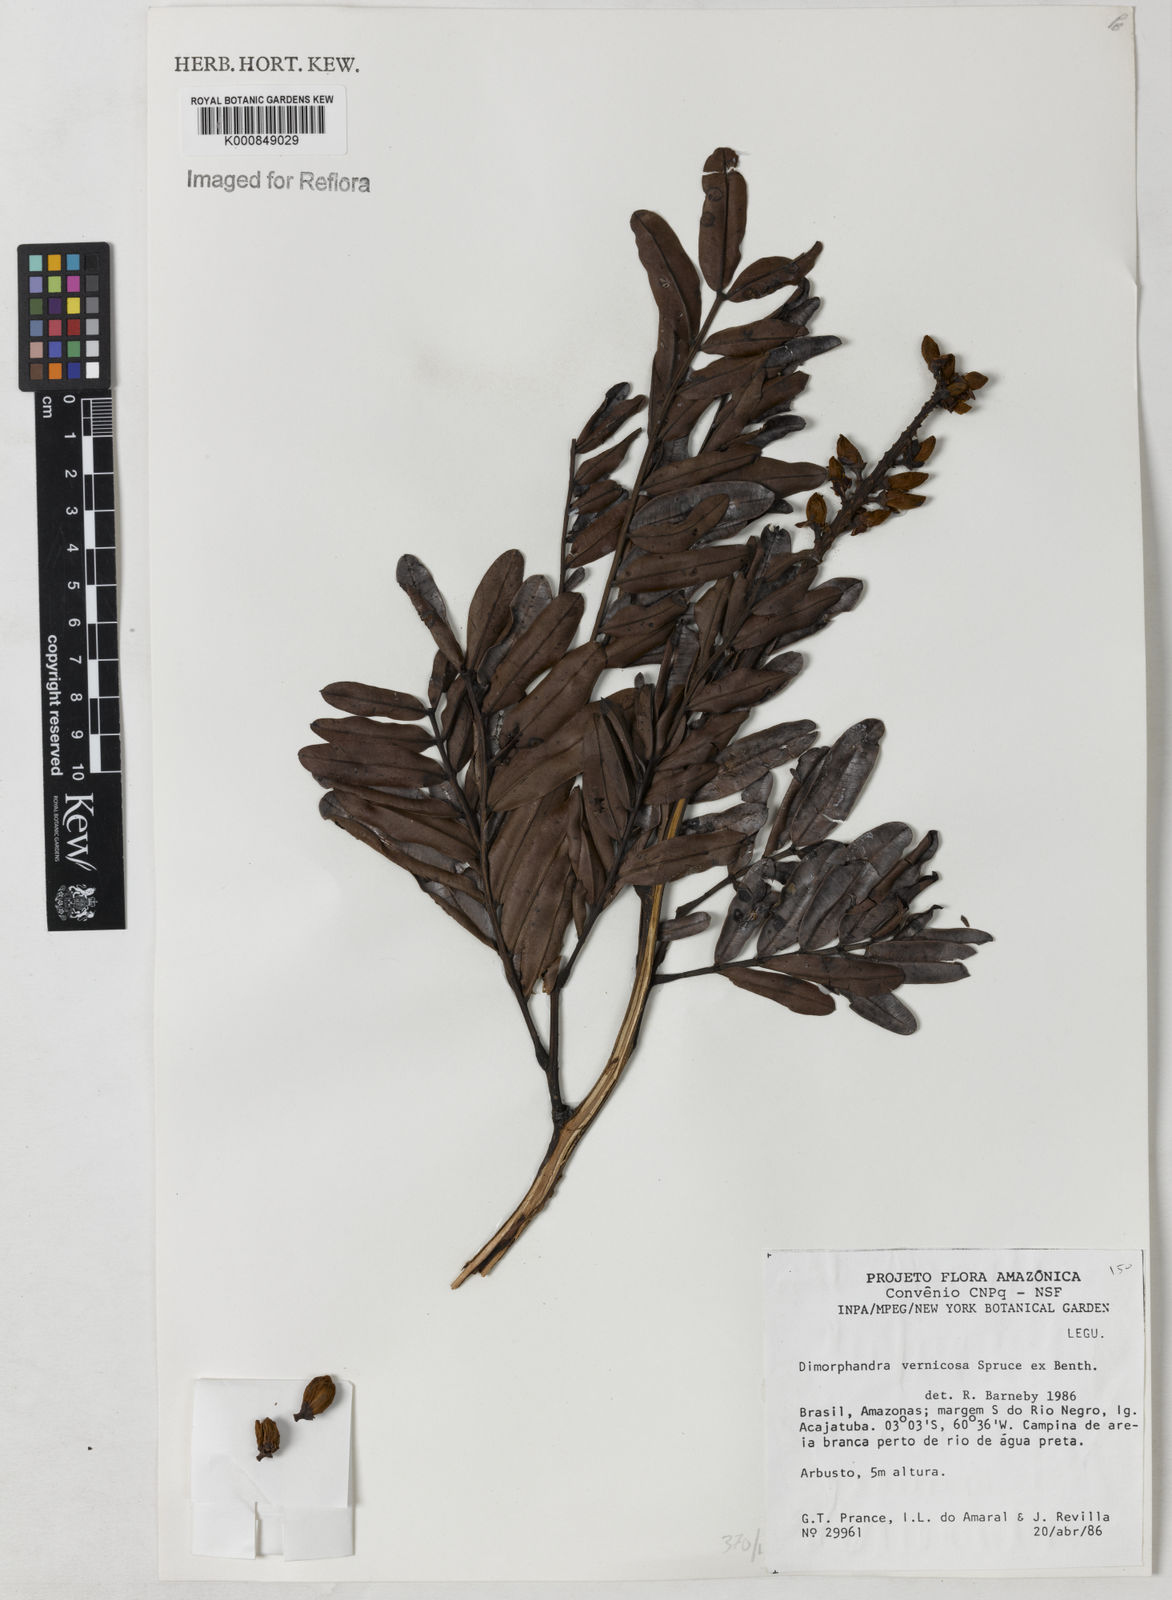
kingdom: Plantae
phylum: Tracheophyta
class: Magnoliopsida
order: Fabales
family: Fabaceae
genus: Dimorphandra
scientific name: Dimorphandra vernicosa
